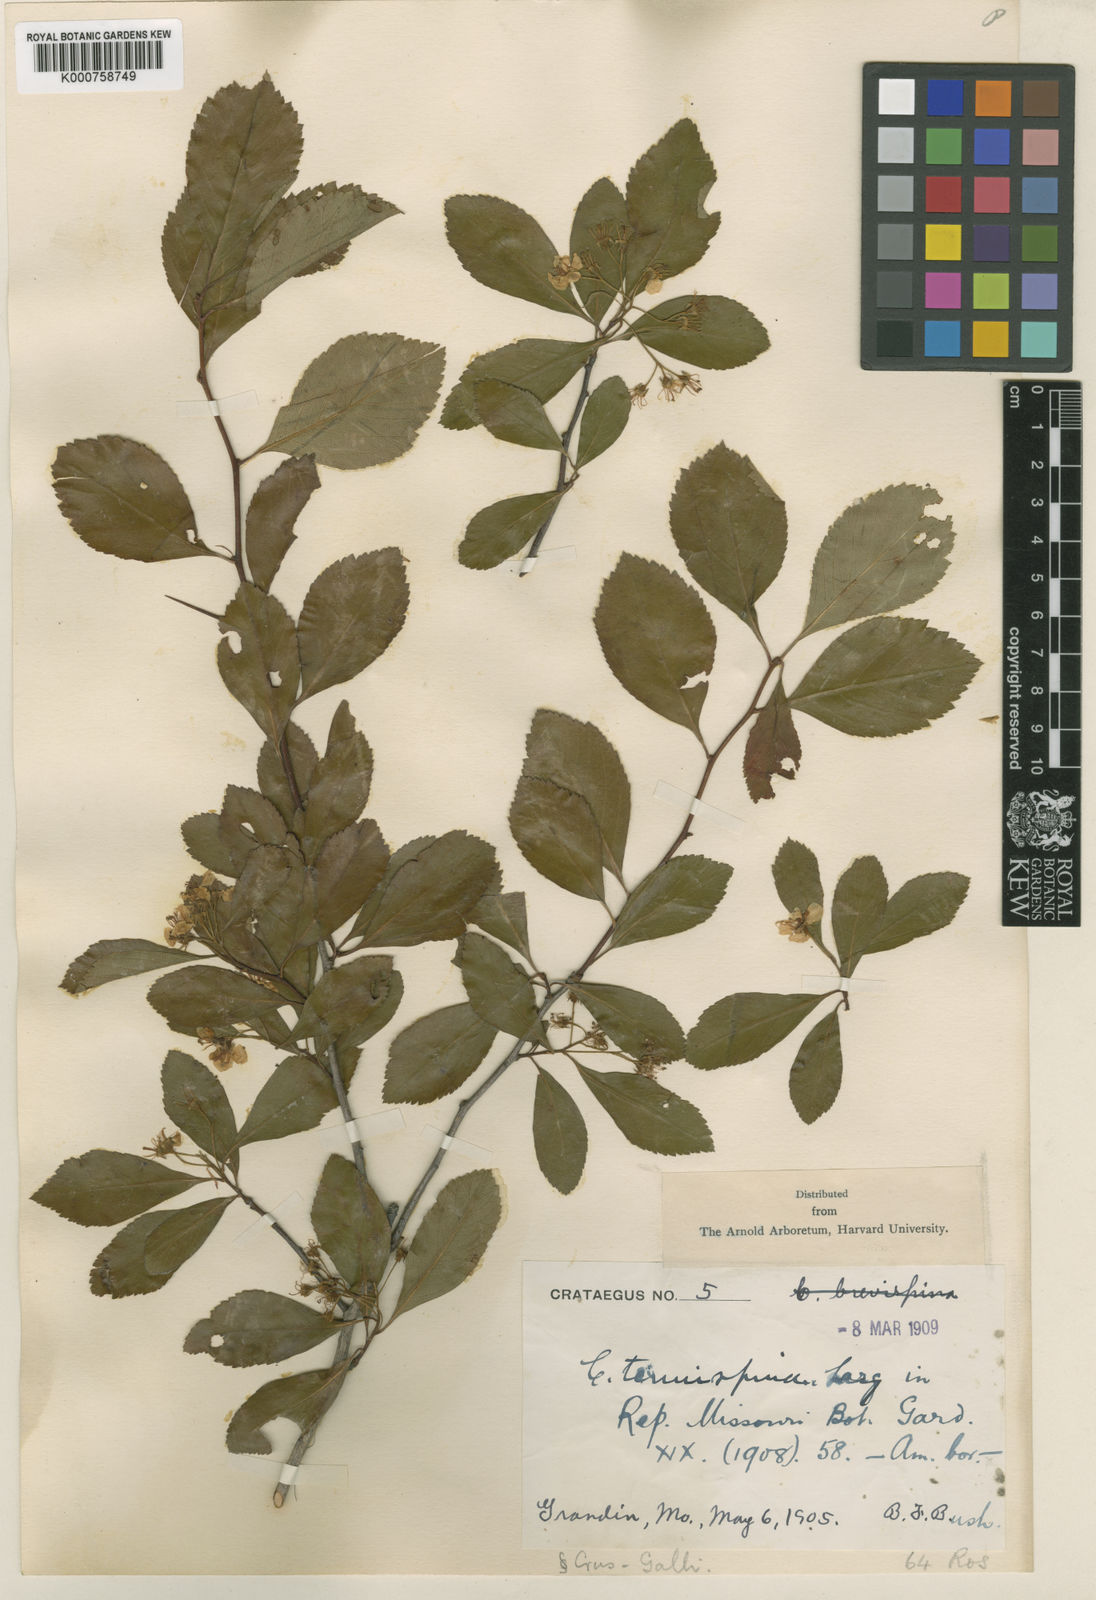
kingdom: Plantae
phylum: Tracheophyta
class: Magnoliopsida
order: Rosales
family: Rosaceae
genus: Crataegus
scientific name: Crataegus tenuispina
